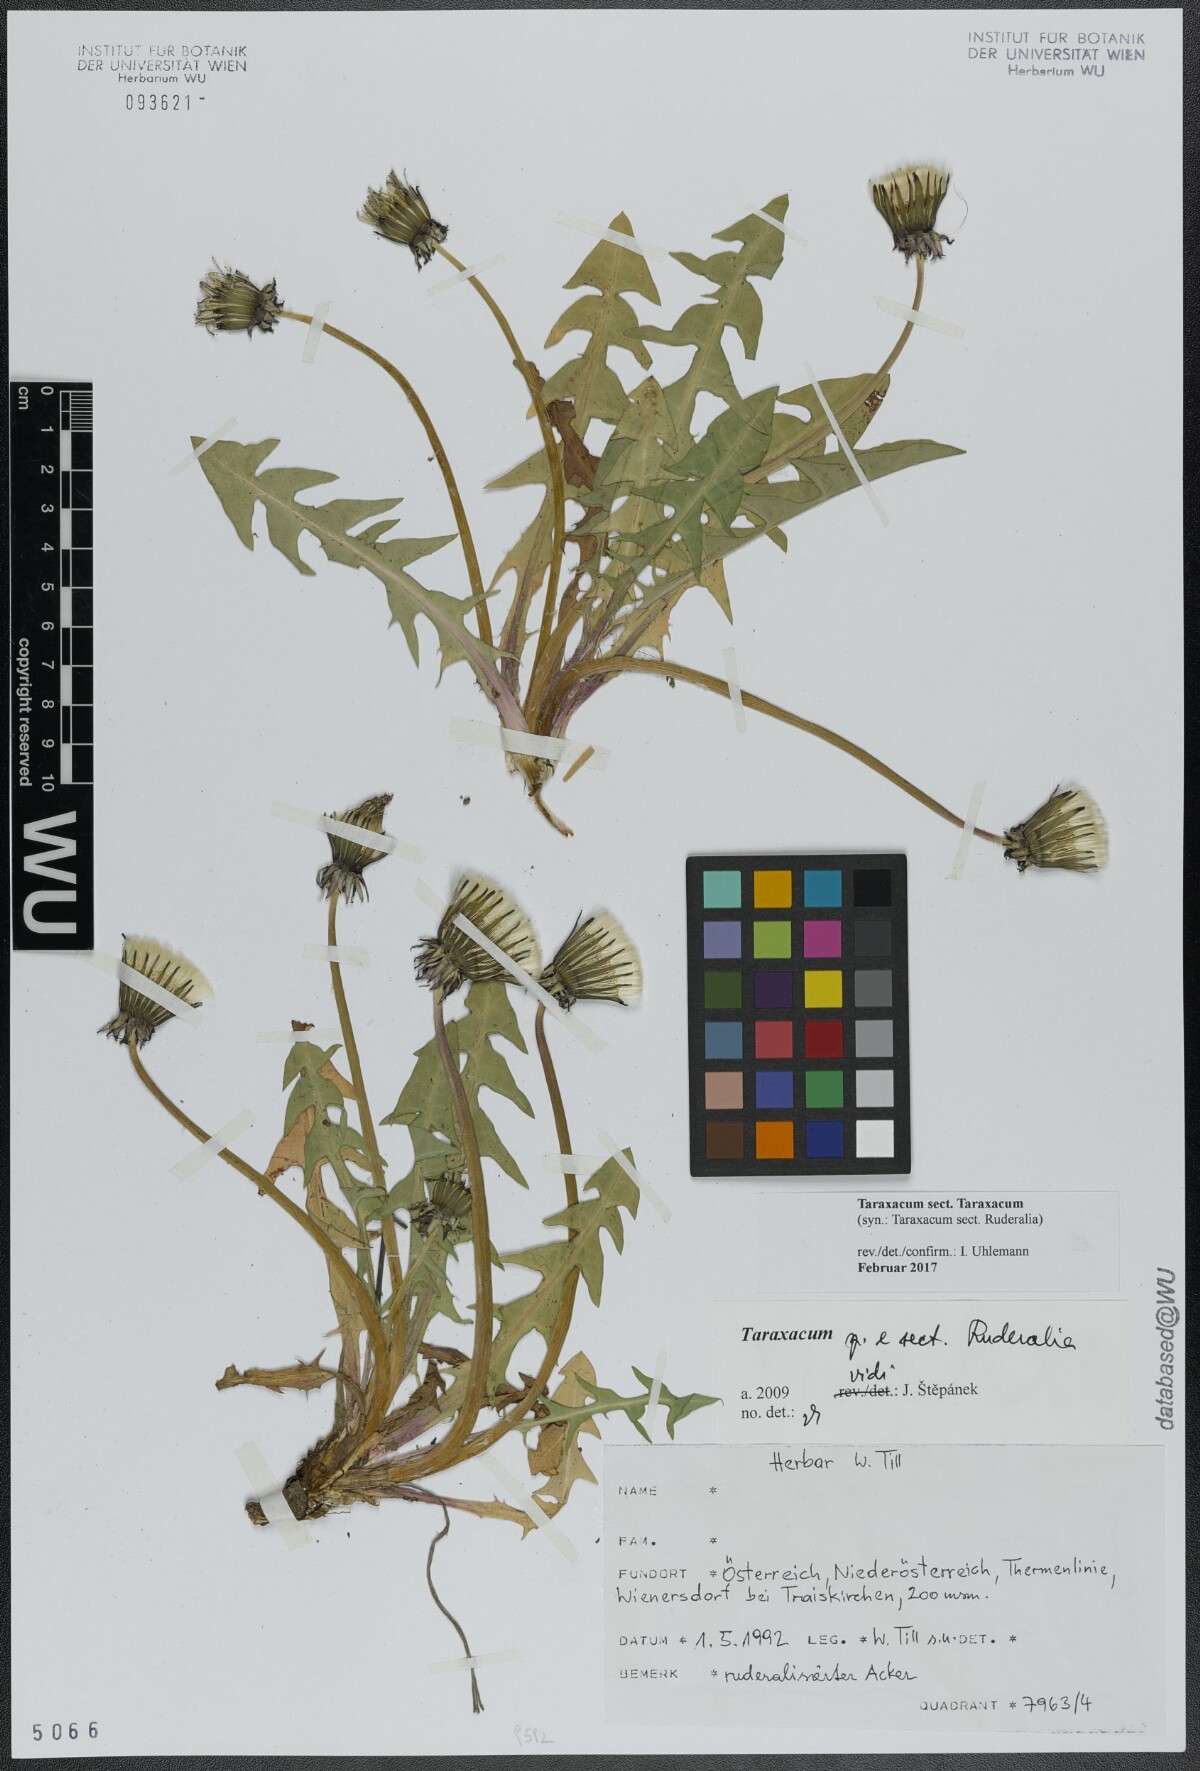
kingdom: Plantae
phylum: Tracheophyta
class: Magnoliopsida
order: Asterales
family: Asteraceae
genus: Taraxacum
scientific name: Taraxacum
